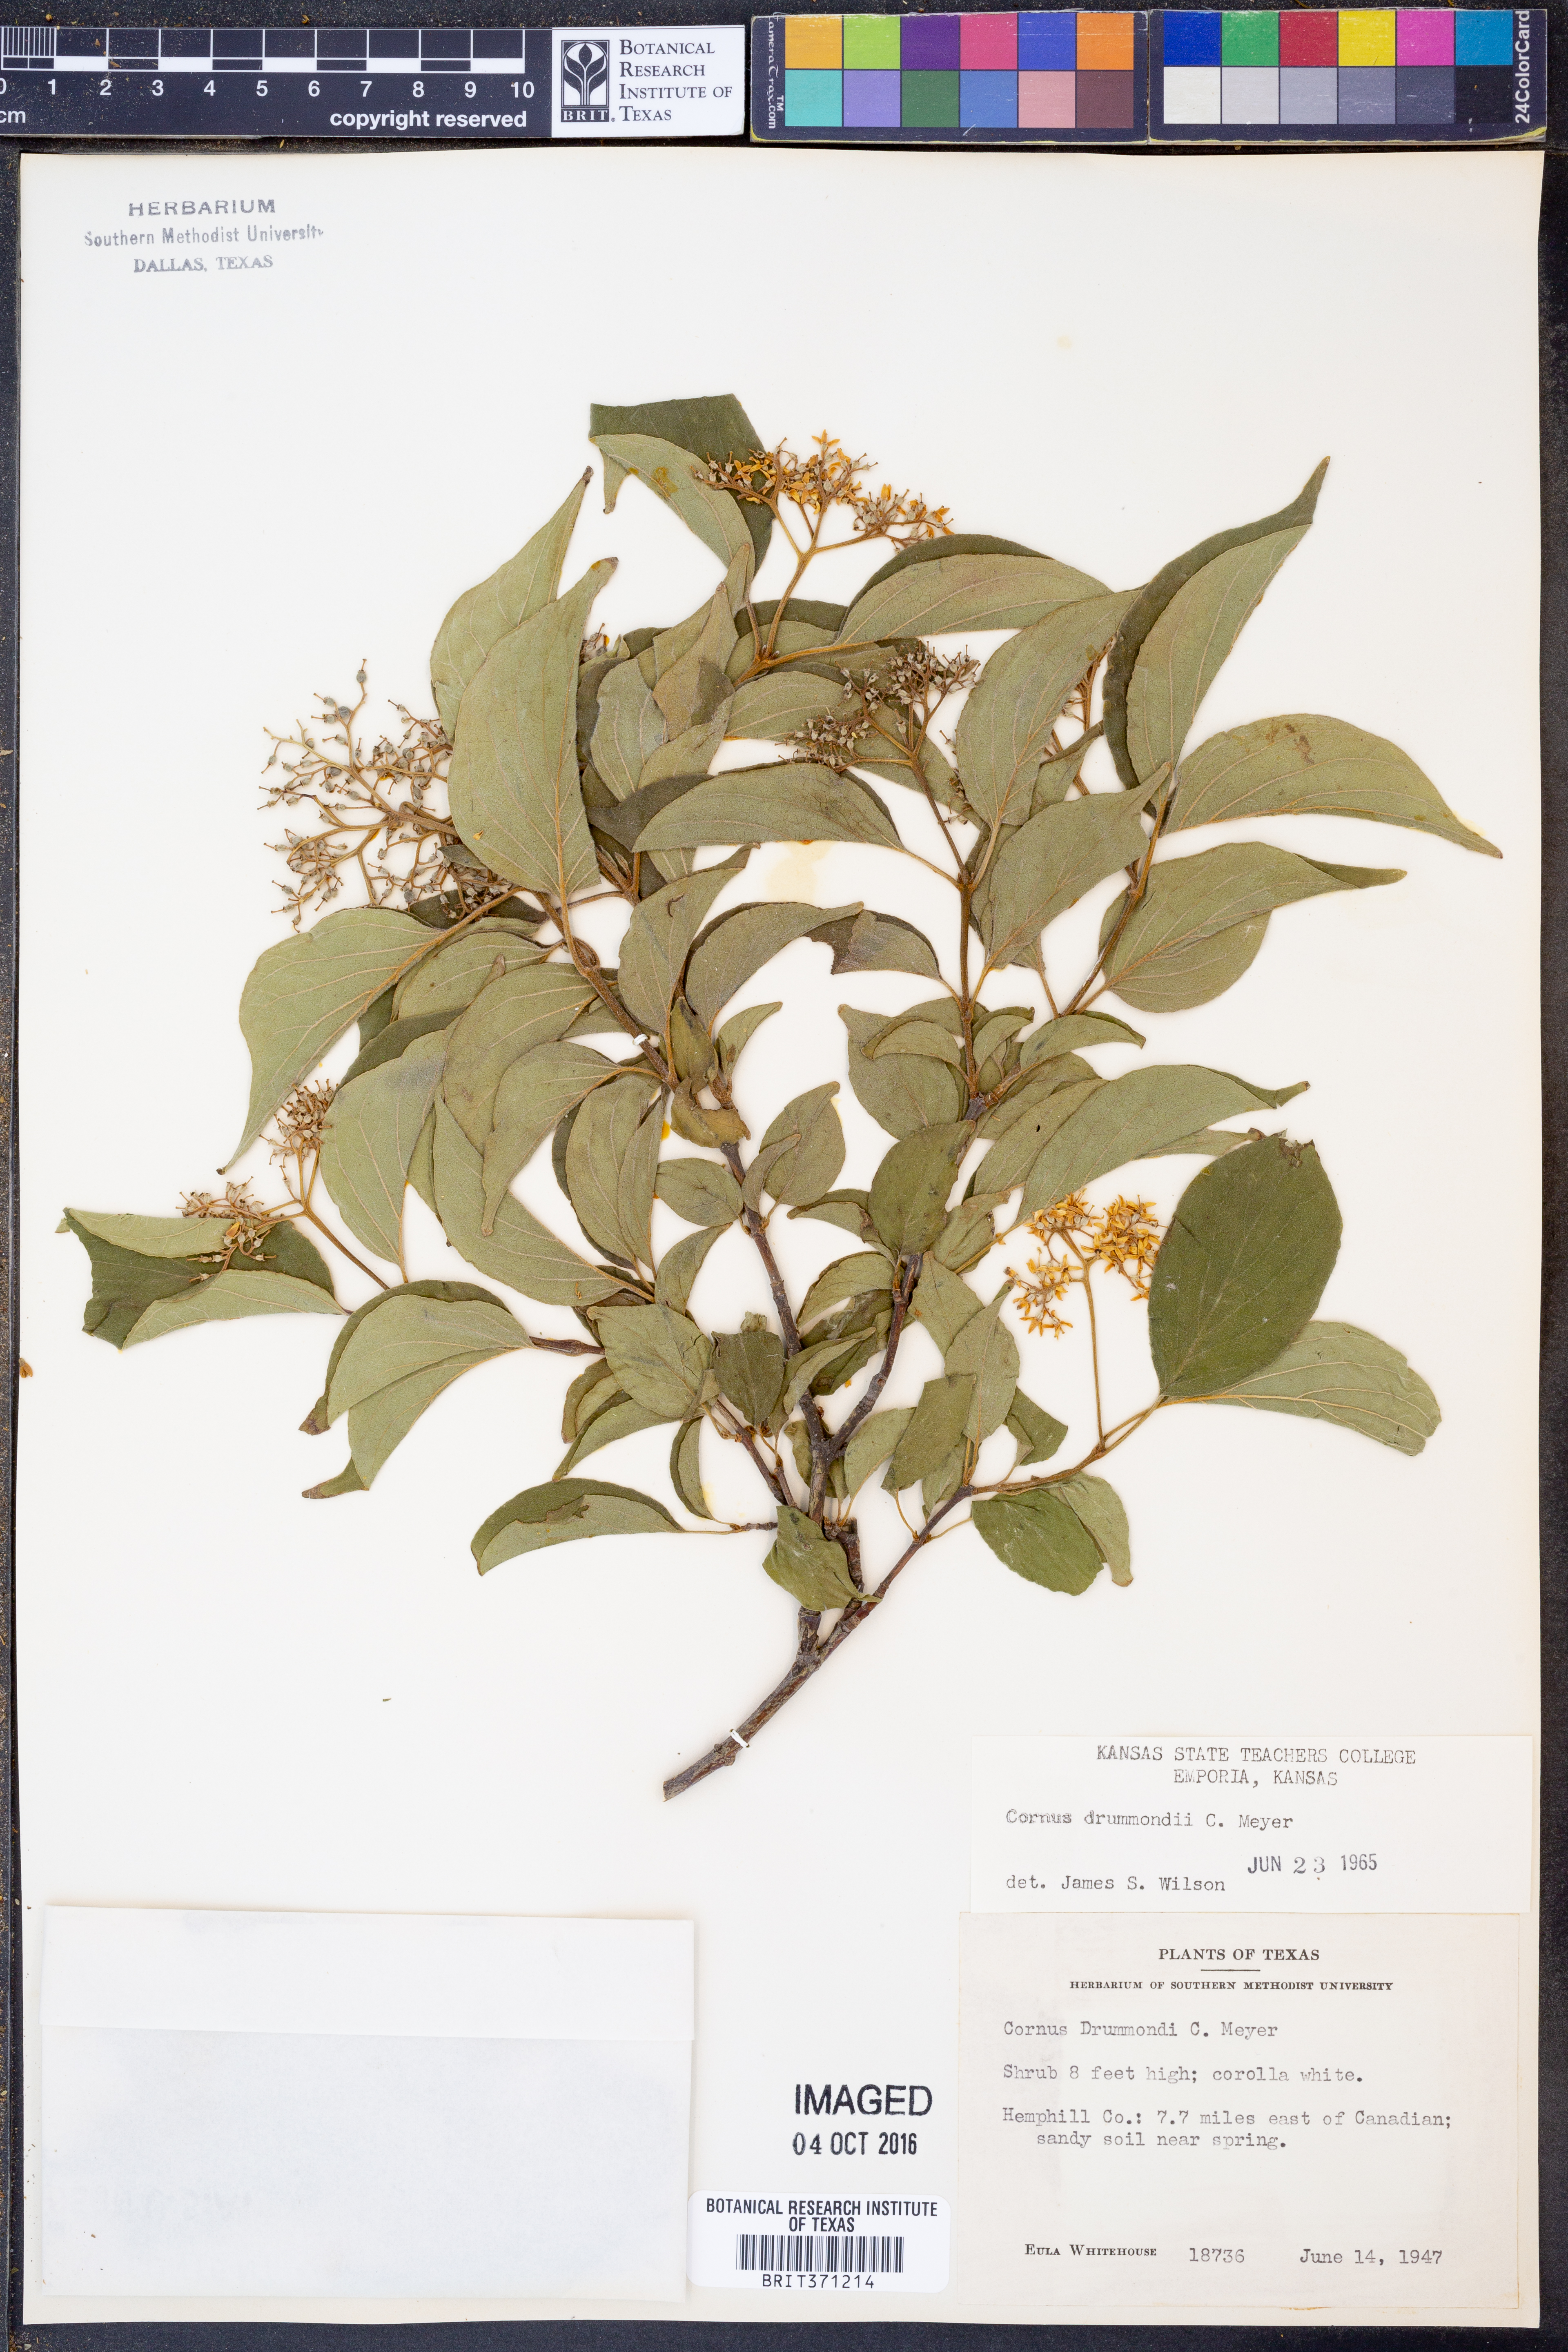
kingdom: Plantae
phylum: Tracheophyta
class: Magnoliopsida
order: Cornales
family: Cornaceae
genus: Cornus
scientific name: Cornus drummondii
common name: Rough-leaf dogwood
